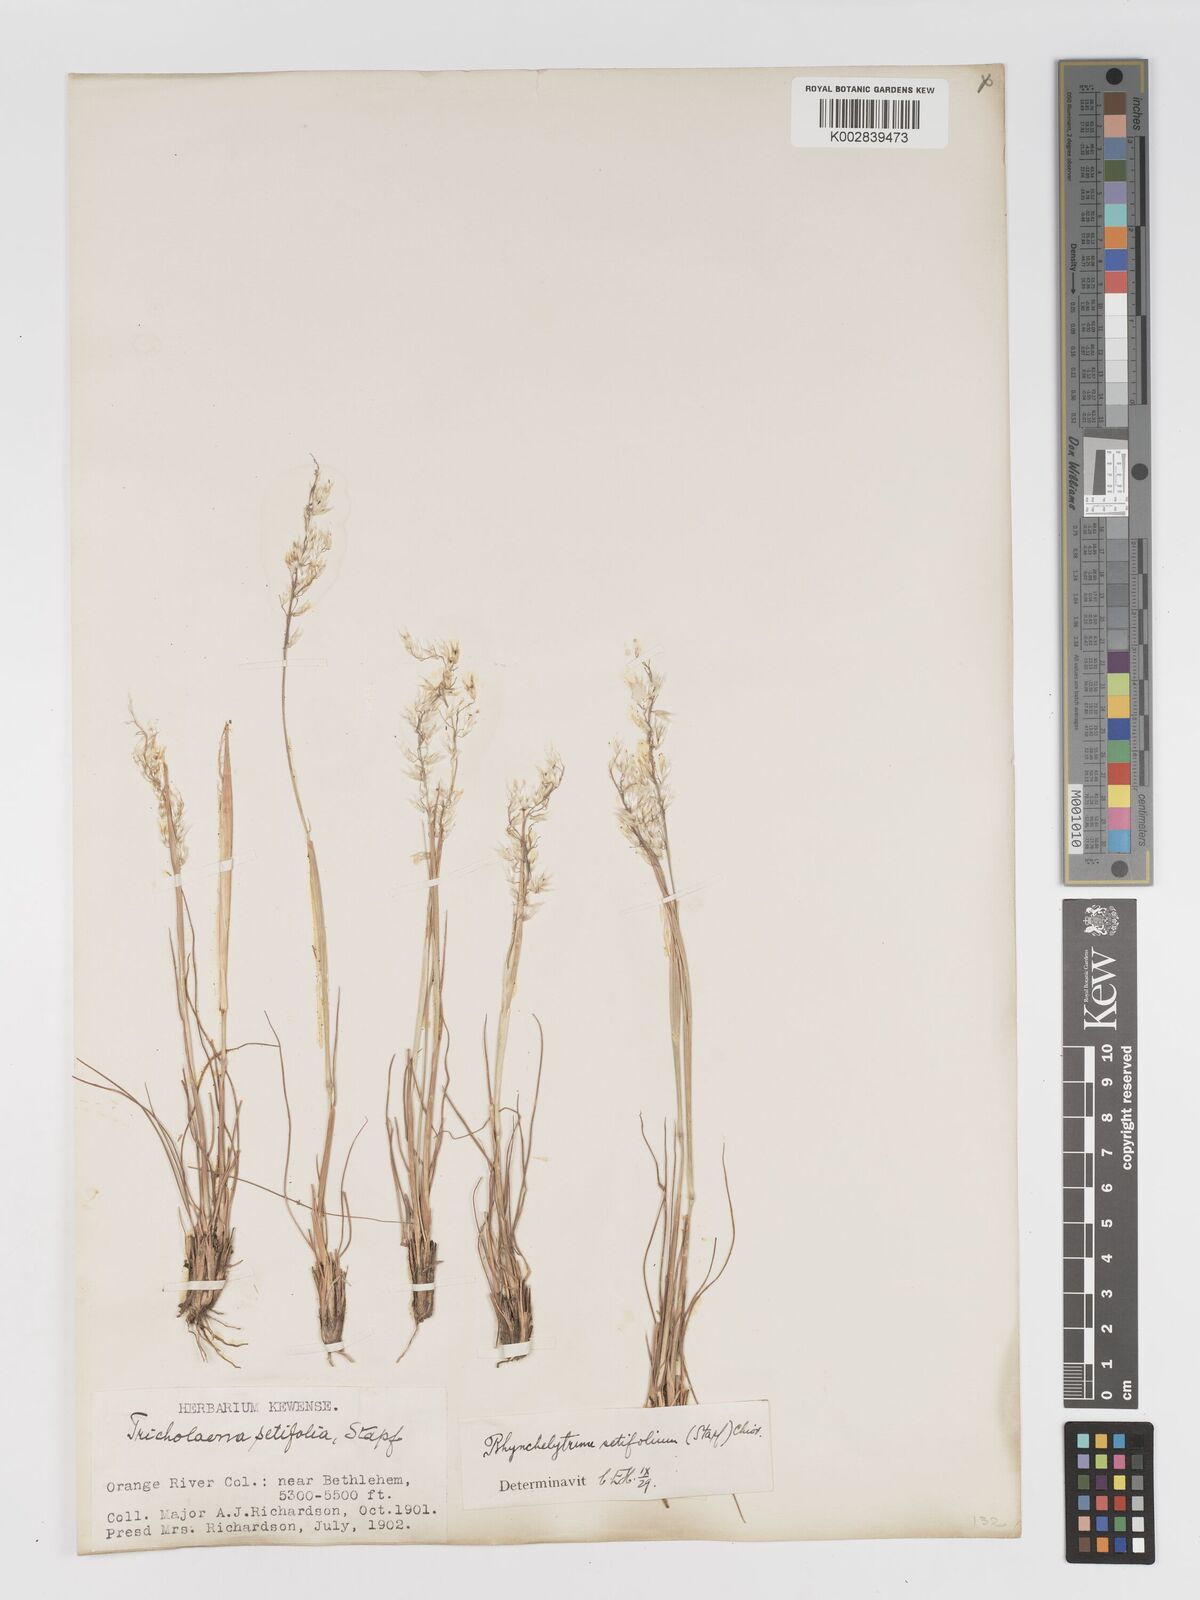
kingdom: Plantae
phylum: Tracheophyta
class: Liliopsida
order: Poales
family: Poaceae
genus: Melinis
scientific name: Melinis nerviglumis
